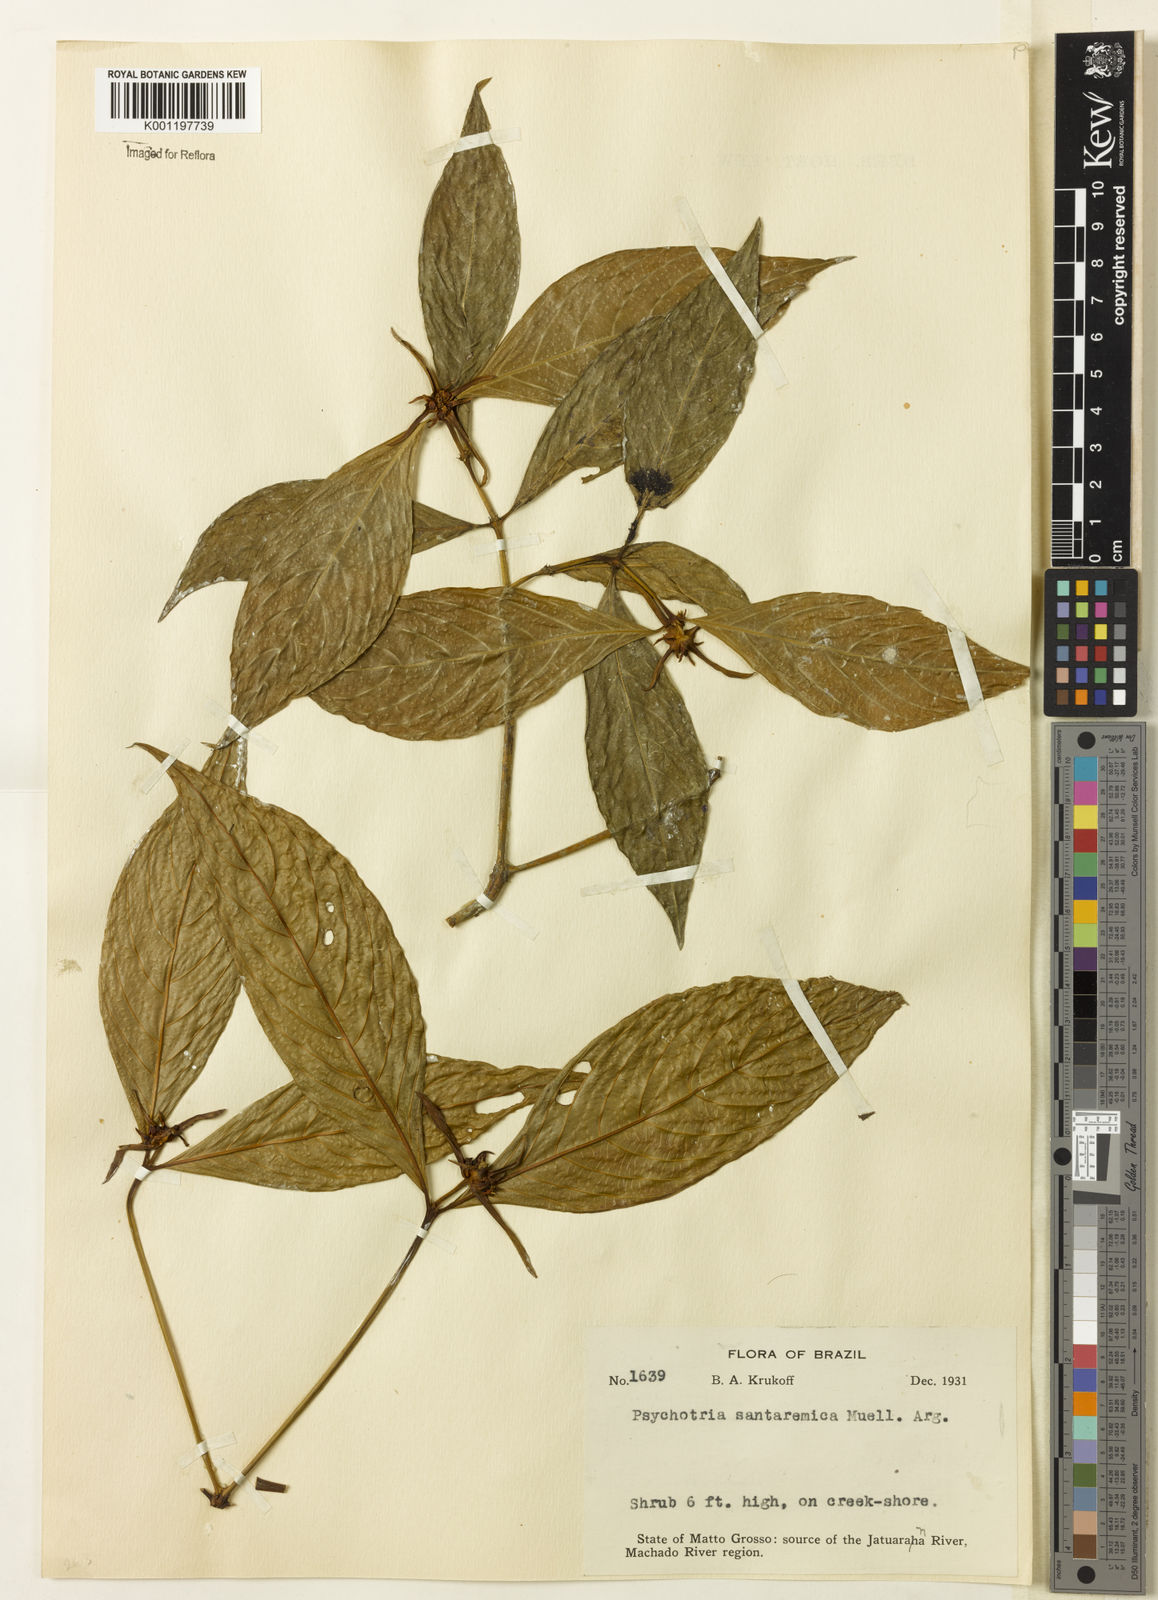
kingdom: Plantae
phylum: Tracheophyta
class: Magnoliopsida
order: Gentianales
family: Rubiaceae
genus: Psychotria
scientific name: Psychotria
